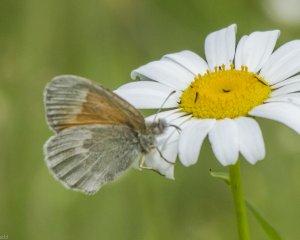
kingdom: Animalia
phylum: Arthropoda
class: Insecta
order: Lepidoptera
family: Nymphalidae
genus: Coenonympha
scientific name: Coenonympha tullia
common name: Large Heath
